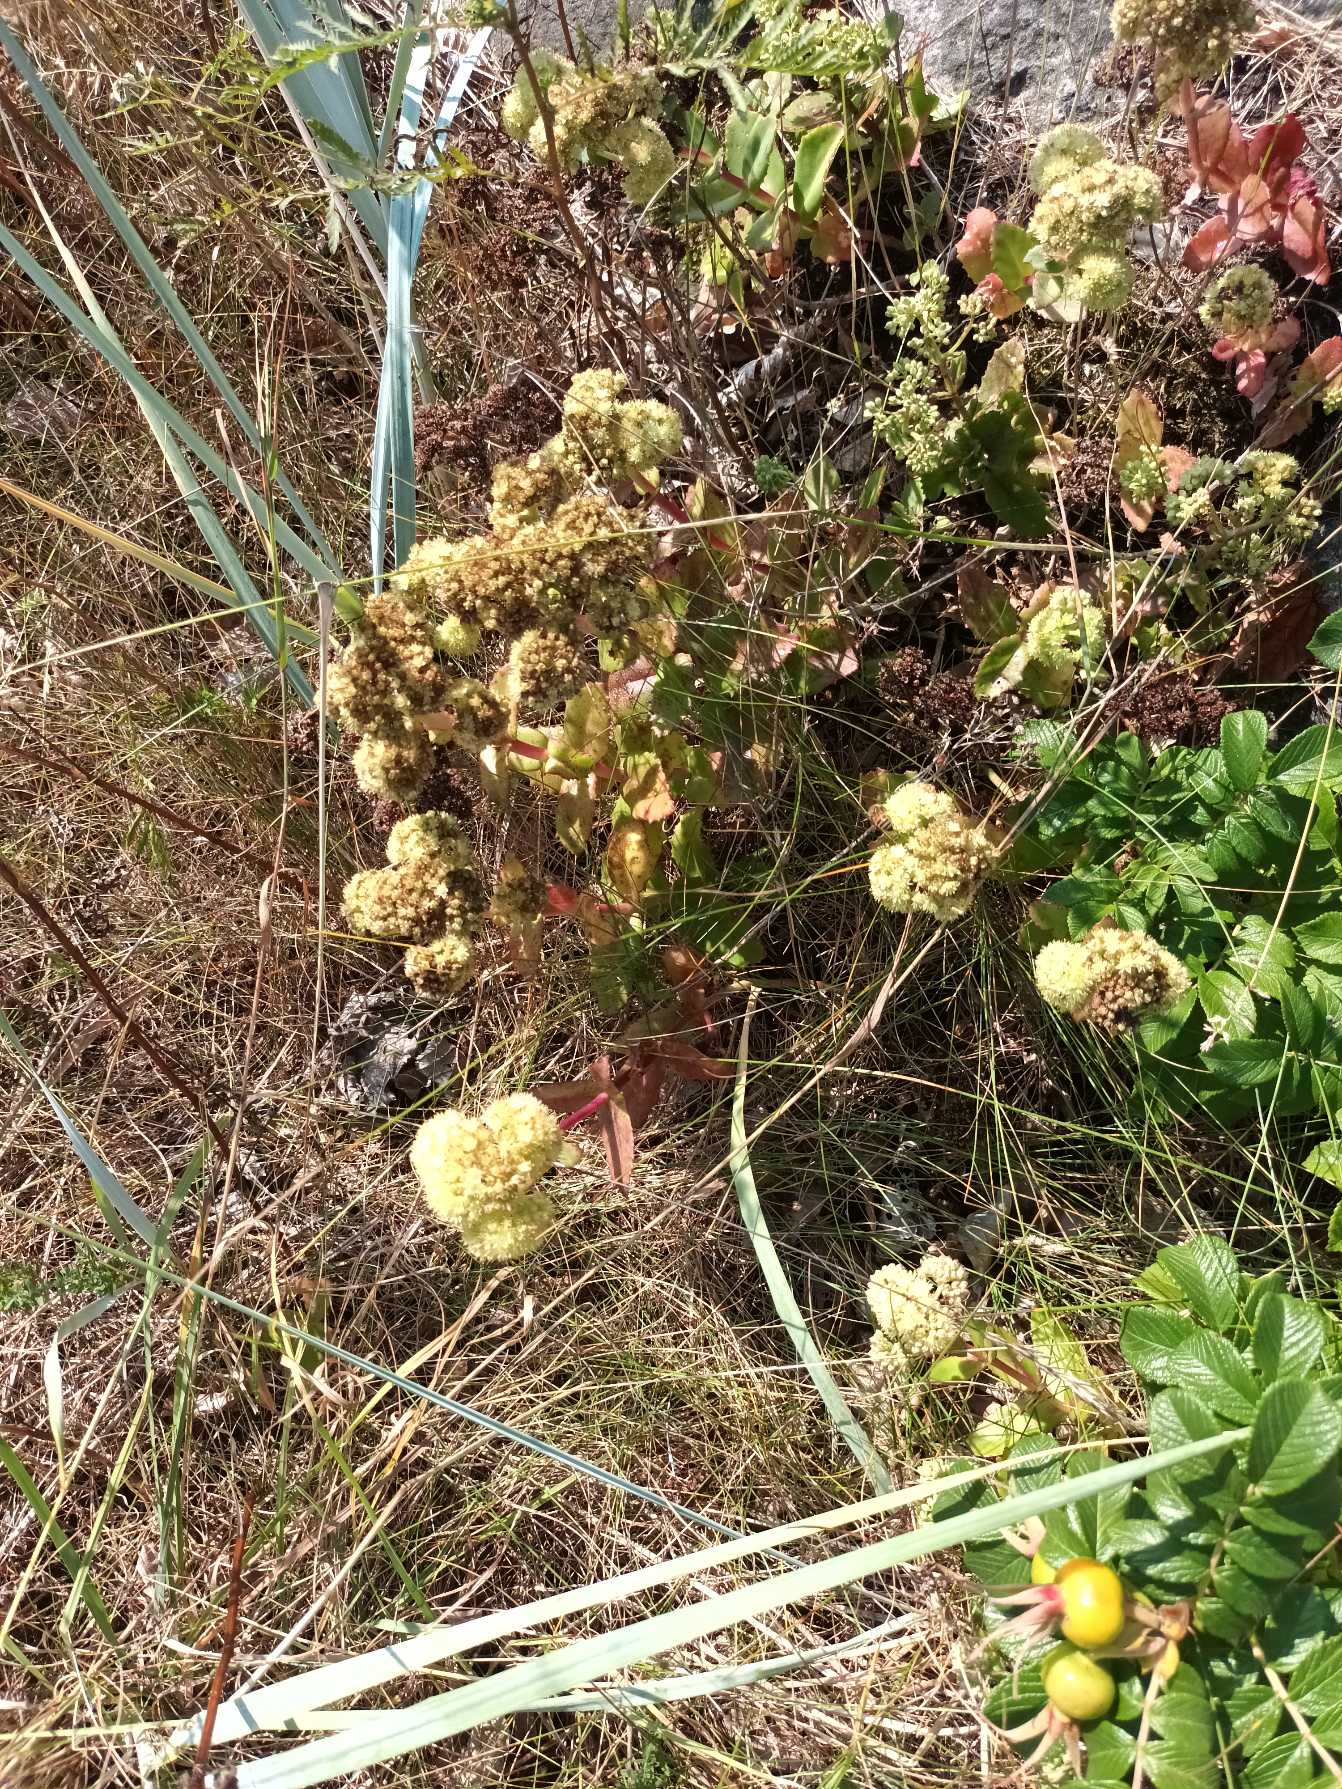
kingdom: Plantae
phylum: Tracheophyta
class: Magnoliopsida
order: Saxifragales
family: Crassulaceae
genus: Hylotelephium
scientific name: Hylotelephium maximum
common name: Almindelig sankthansurt
